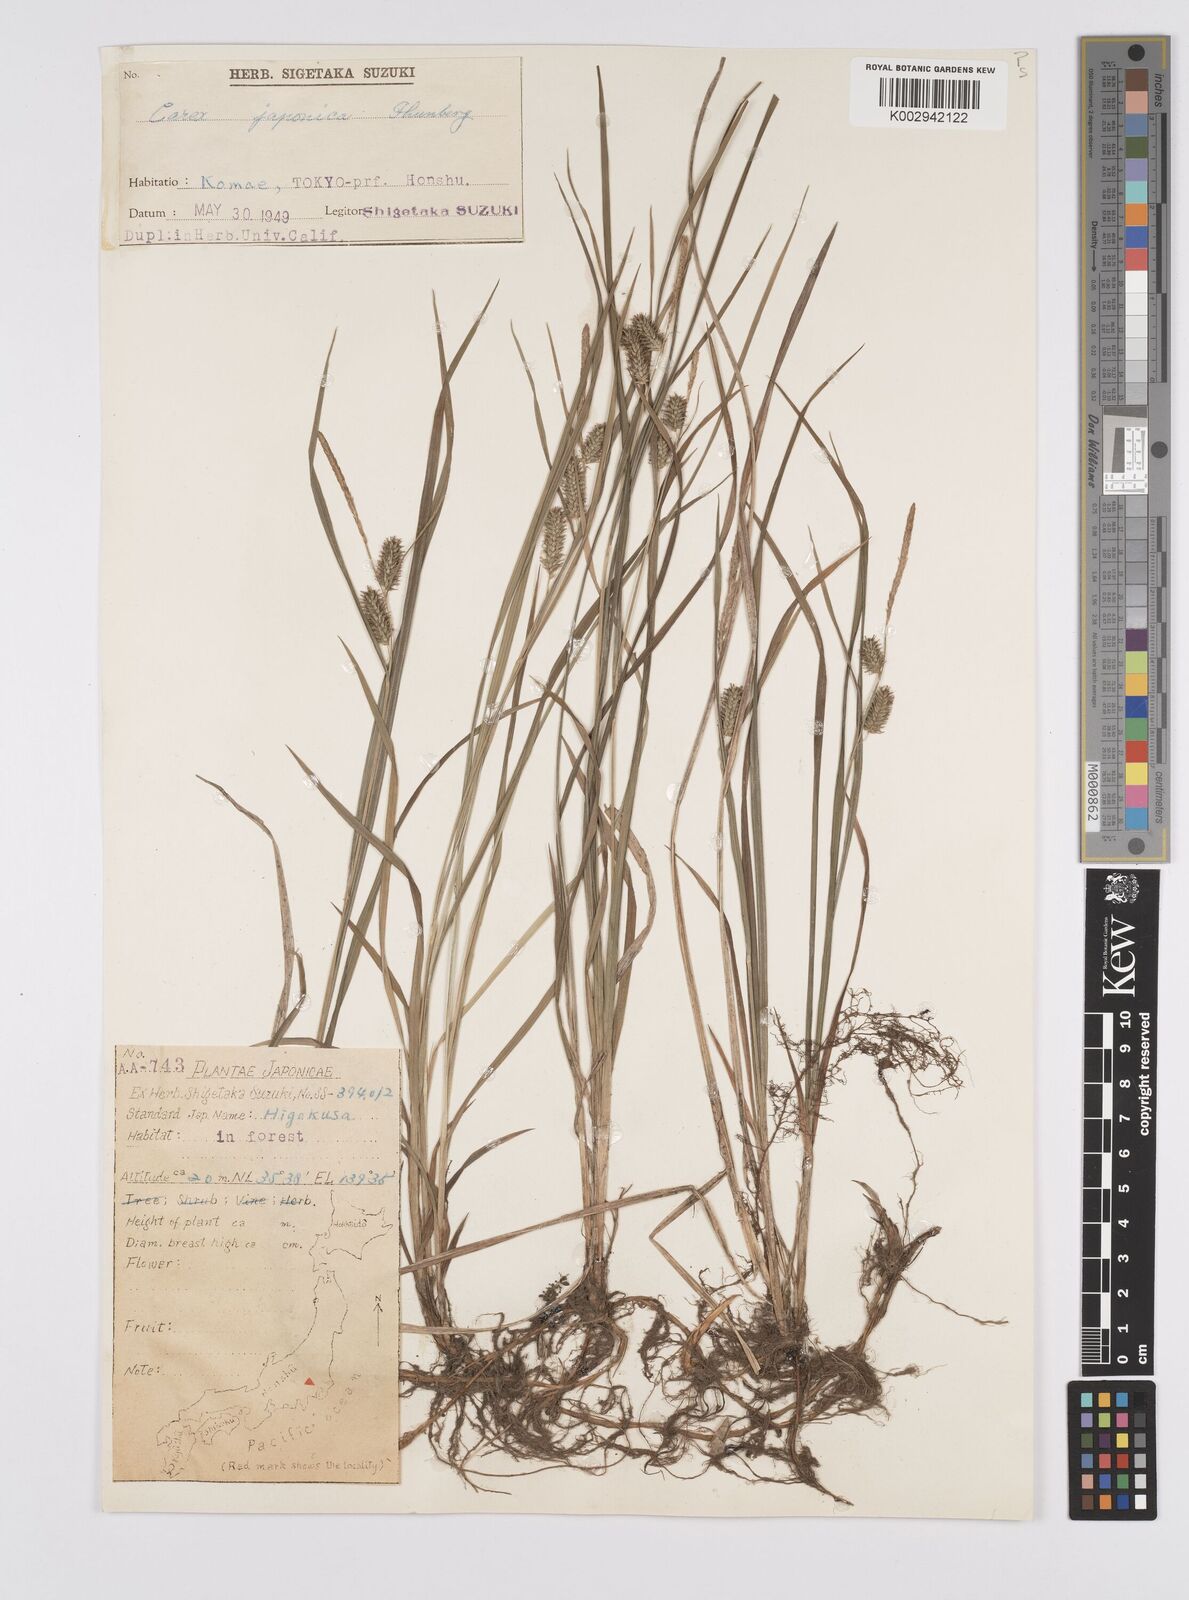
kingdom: Plantae
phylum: Tracheophyta
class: Liliopsida
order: Poales
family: Cyperaceae
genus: Carex
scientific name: Carex japonica
